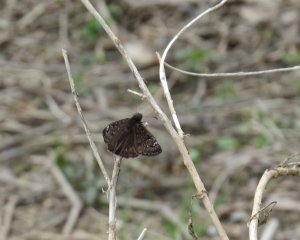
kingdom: Animalia
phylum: Arthropoda
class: Insecta
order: Lepidoptera
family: Hesperiidae
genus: Gesta
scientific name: Gesta
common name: Juvenal's Duskywing
